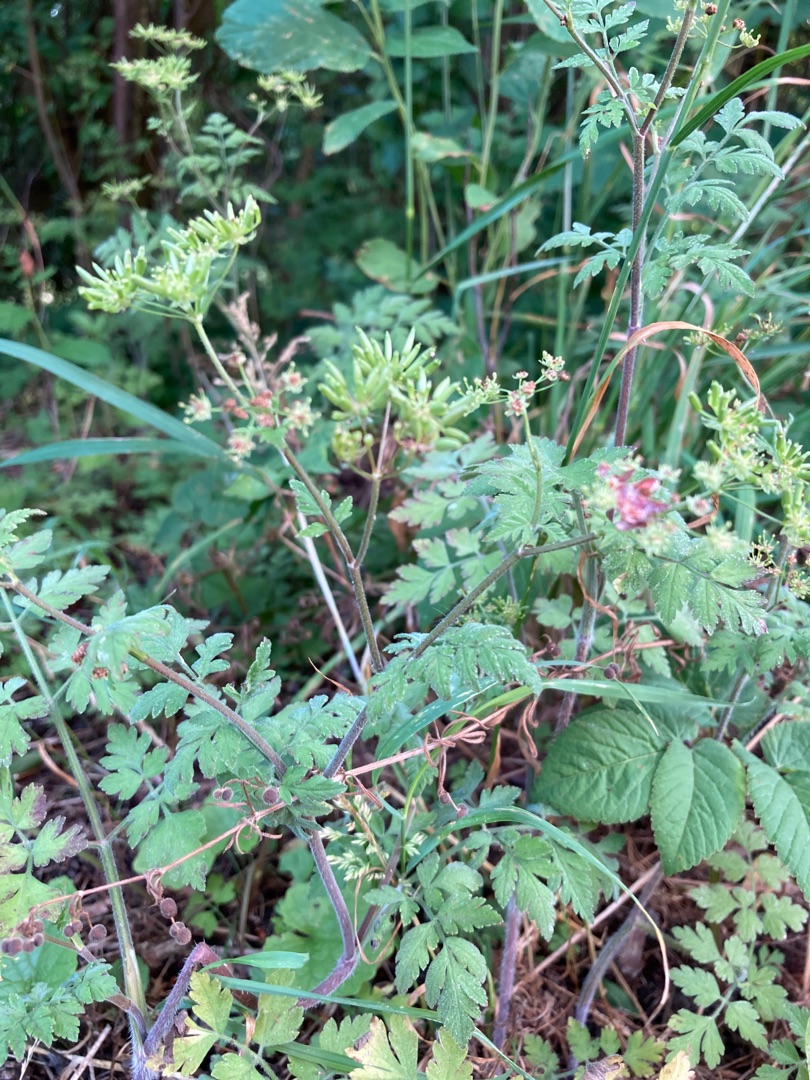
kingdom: Plantae
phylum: Tracheophyta
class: Magnoliopsida
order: Apiales
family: Apiaceae
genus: Chaerophyllum
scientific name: Chaerophyllum temulum
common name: Almindelig hulsvøb
